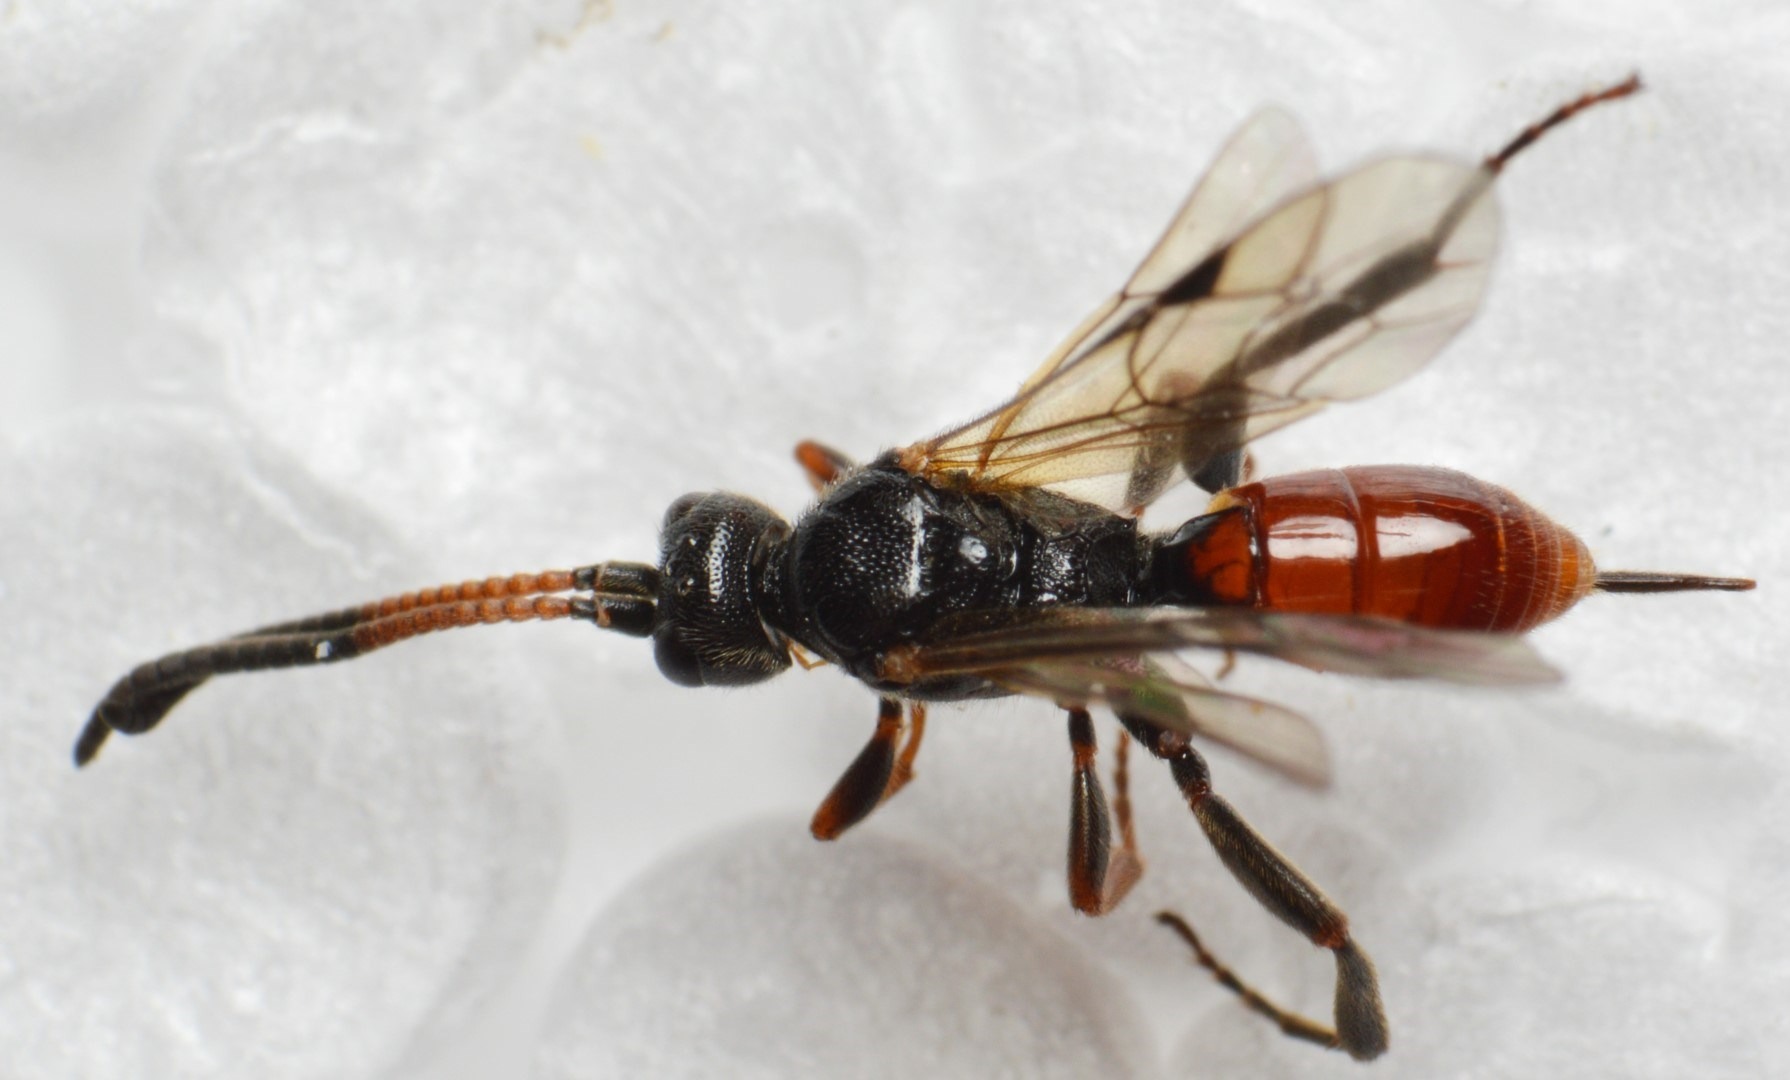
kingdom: Animalia
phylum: Arthropoda
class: Insecta
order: Hymenoptera
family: Ichneumonidae
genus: Endasys
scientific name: Endasys
